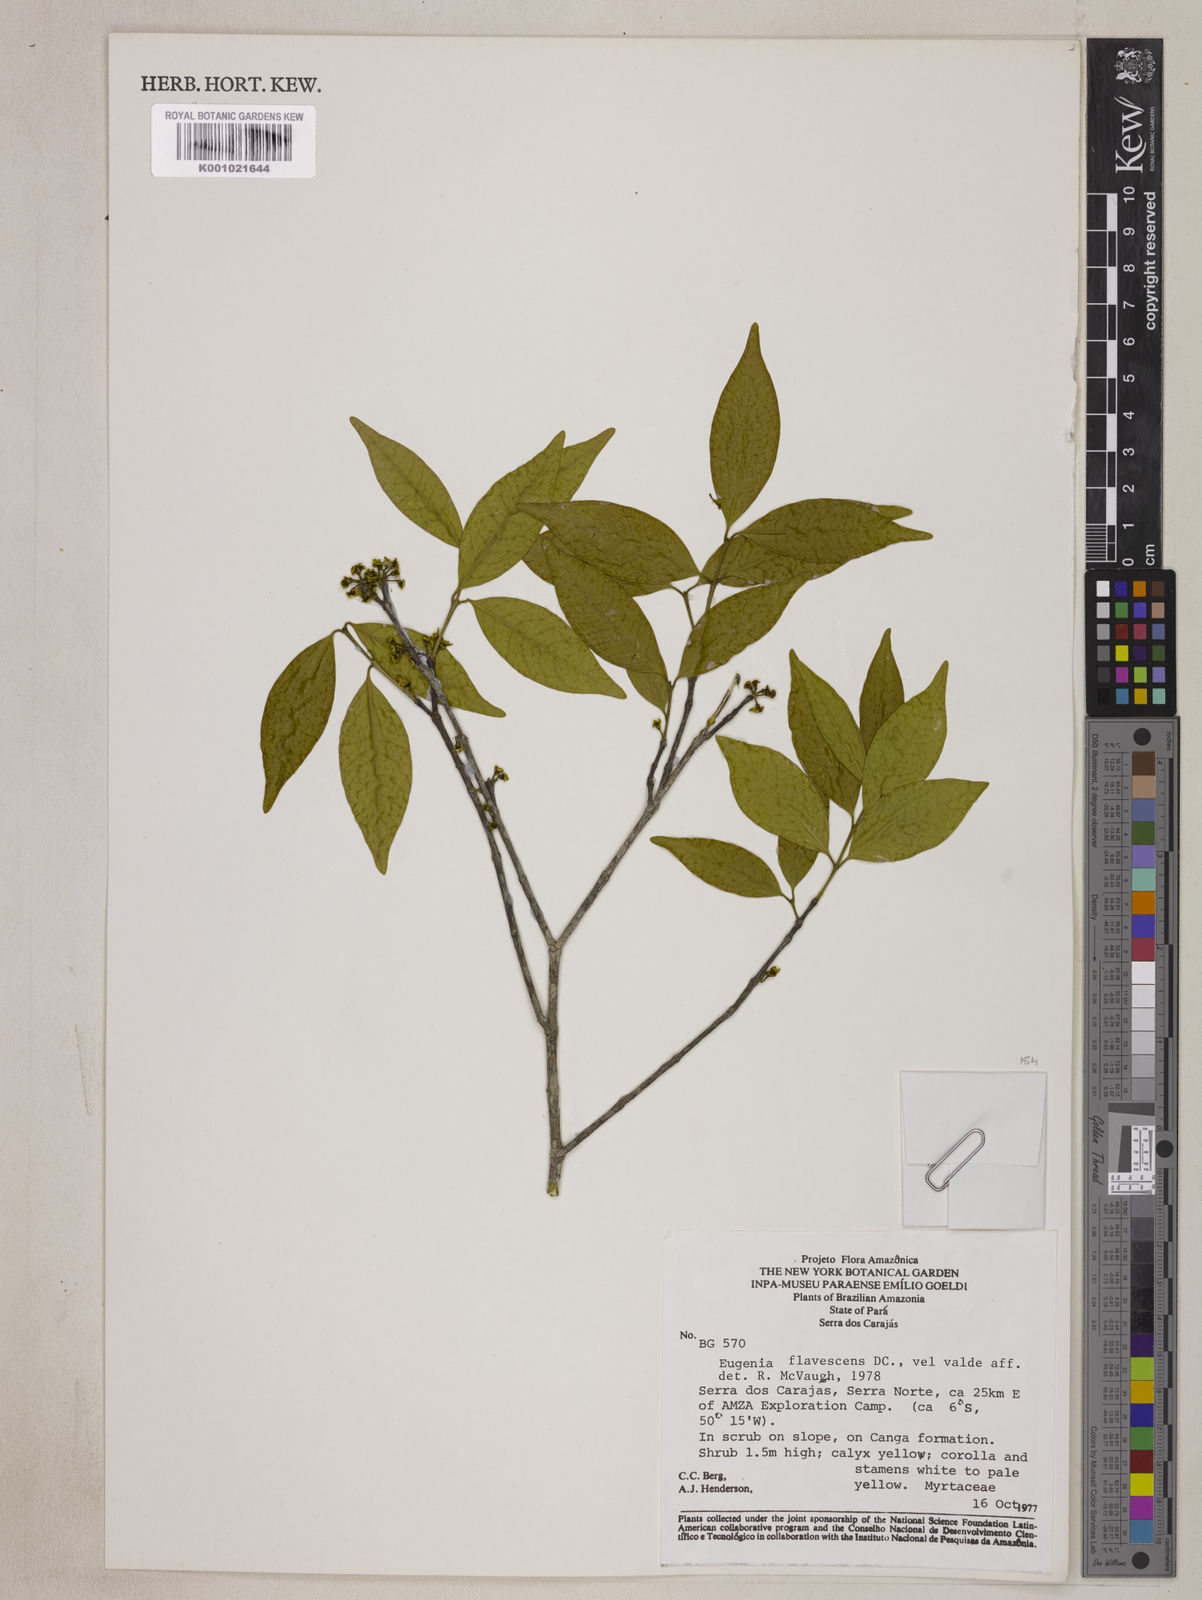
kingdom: Plantae
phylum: Tracheophyta
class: Magnoliopsida
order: Myrtales
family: Myrtaceae
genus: Eugenia
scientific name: Eugenia flavescens
